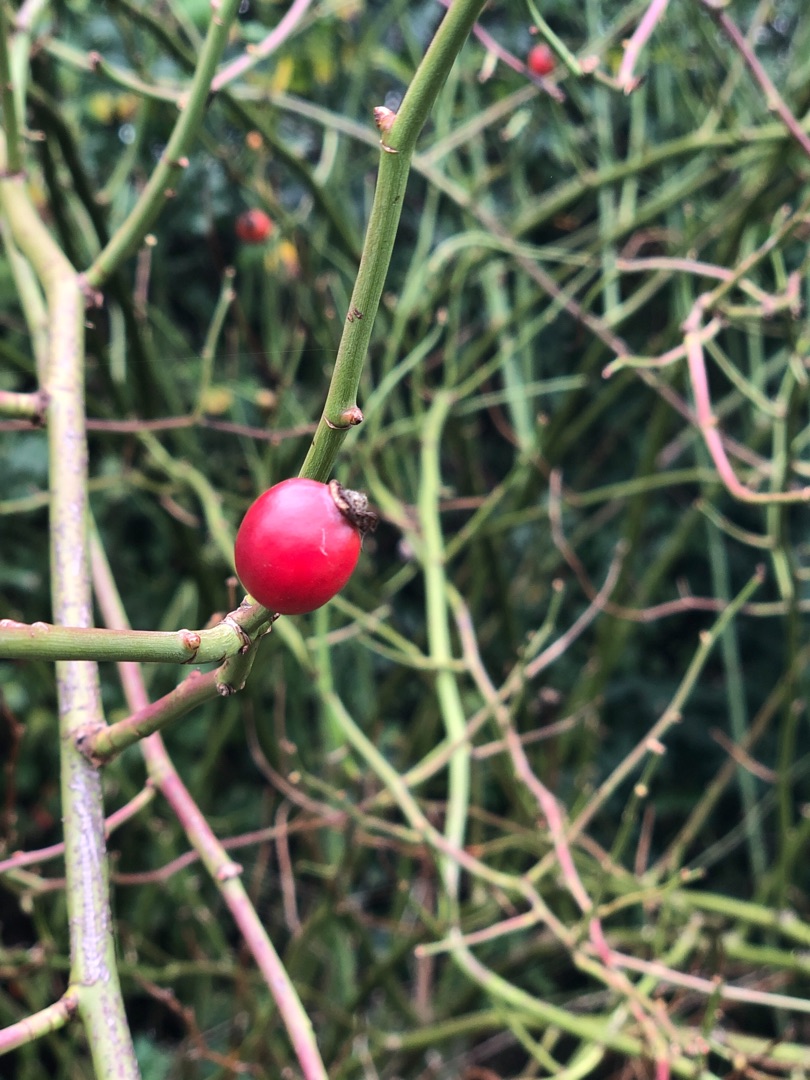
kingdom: Plantae
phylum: Tracheophyta
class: Magnoliopsida
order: Rosales
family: Rosaceae
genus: Rosa
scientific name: Rosa canina
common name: Hunde-rose
